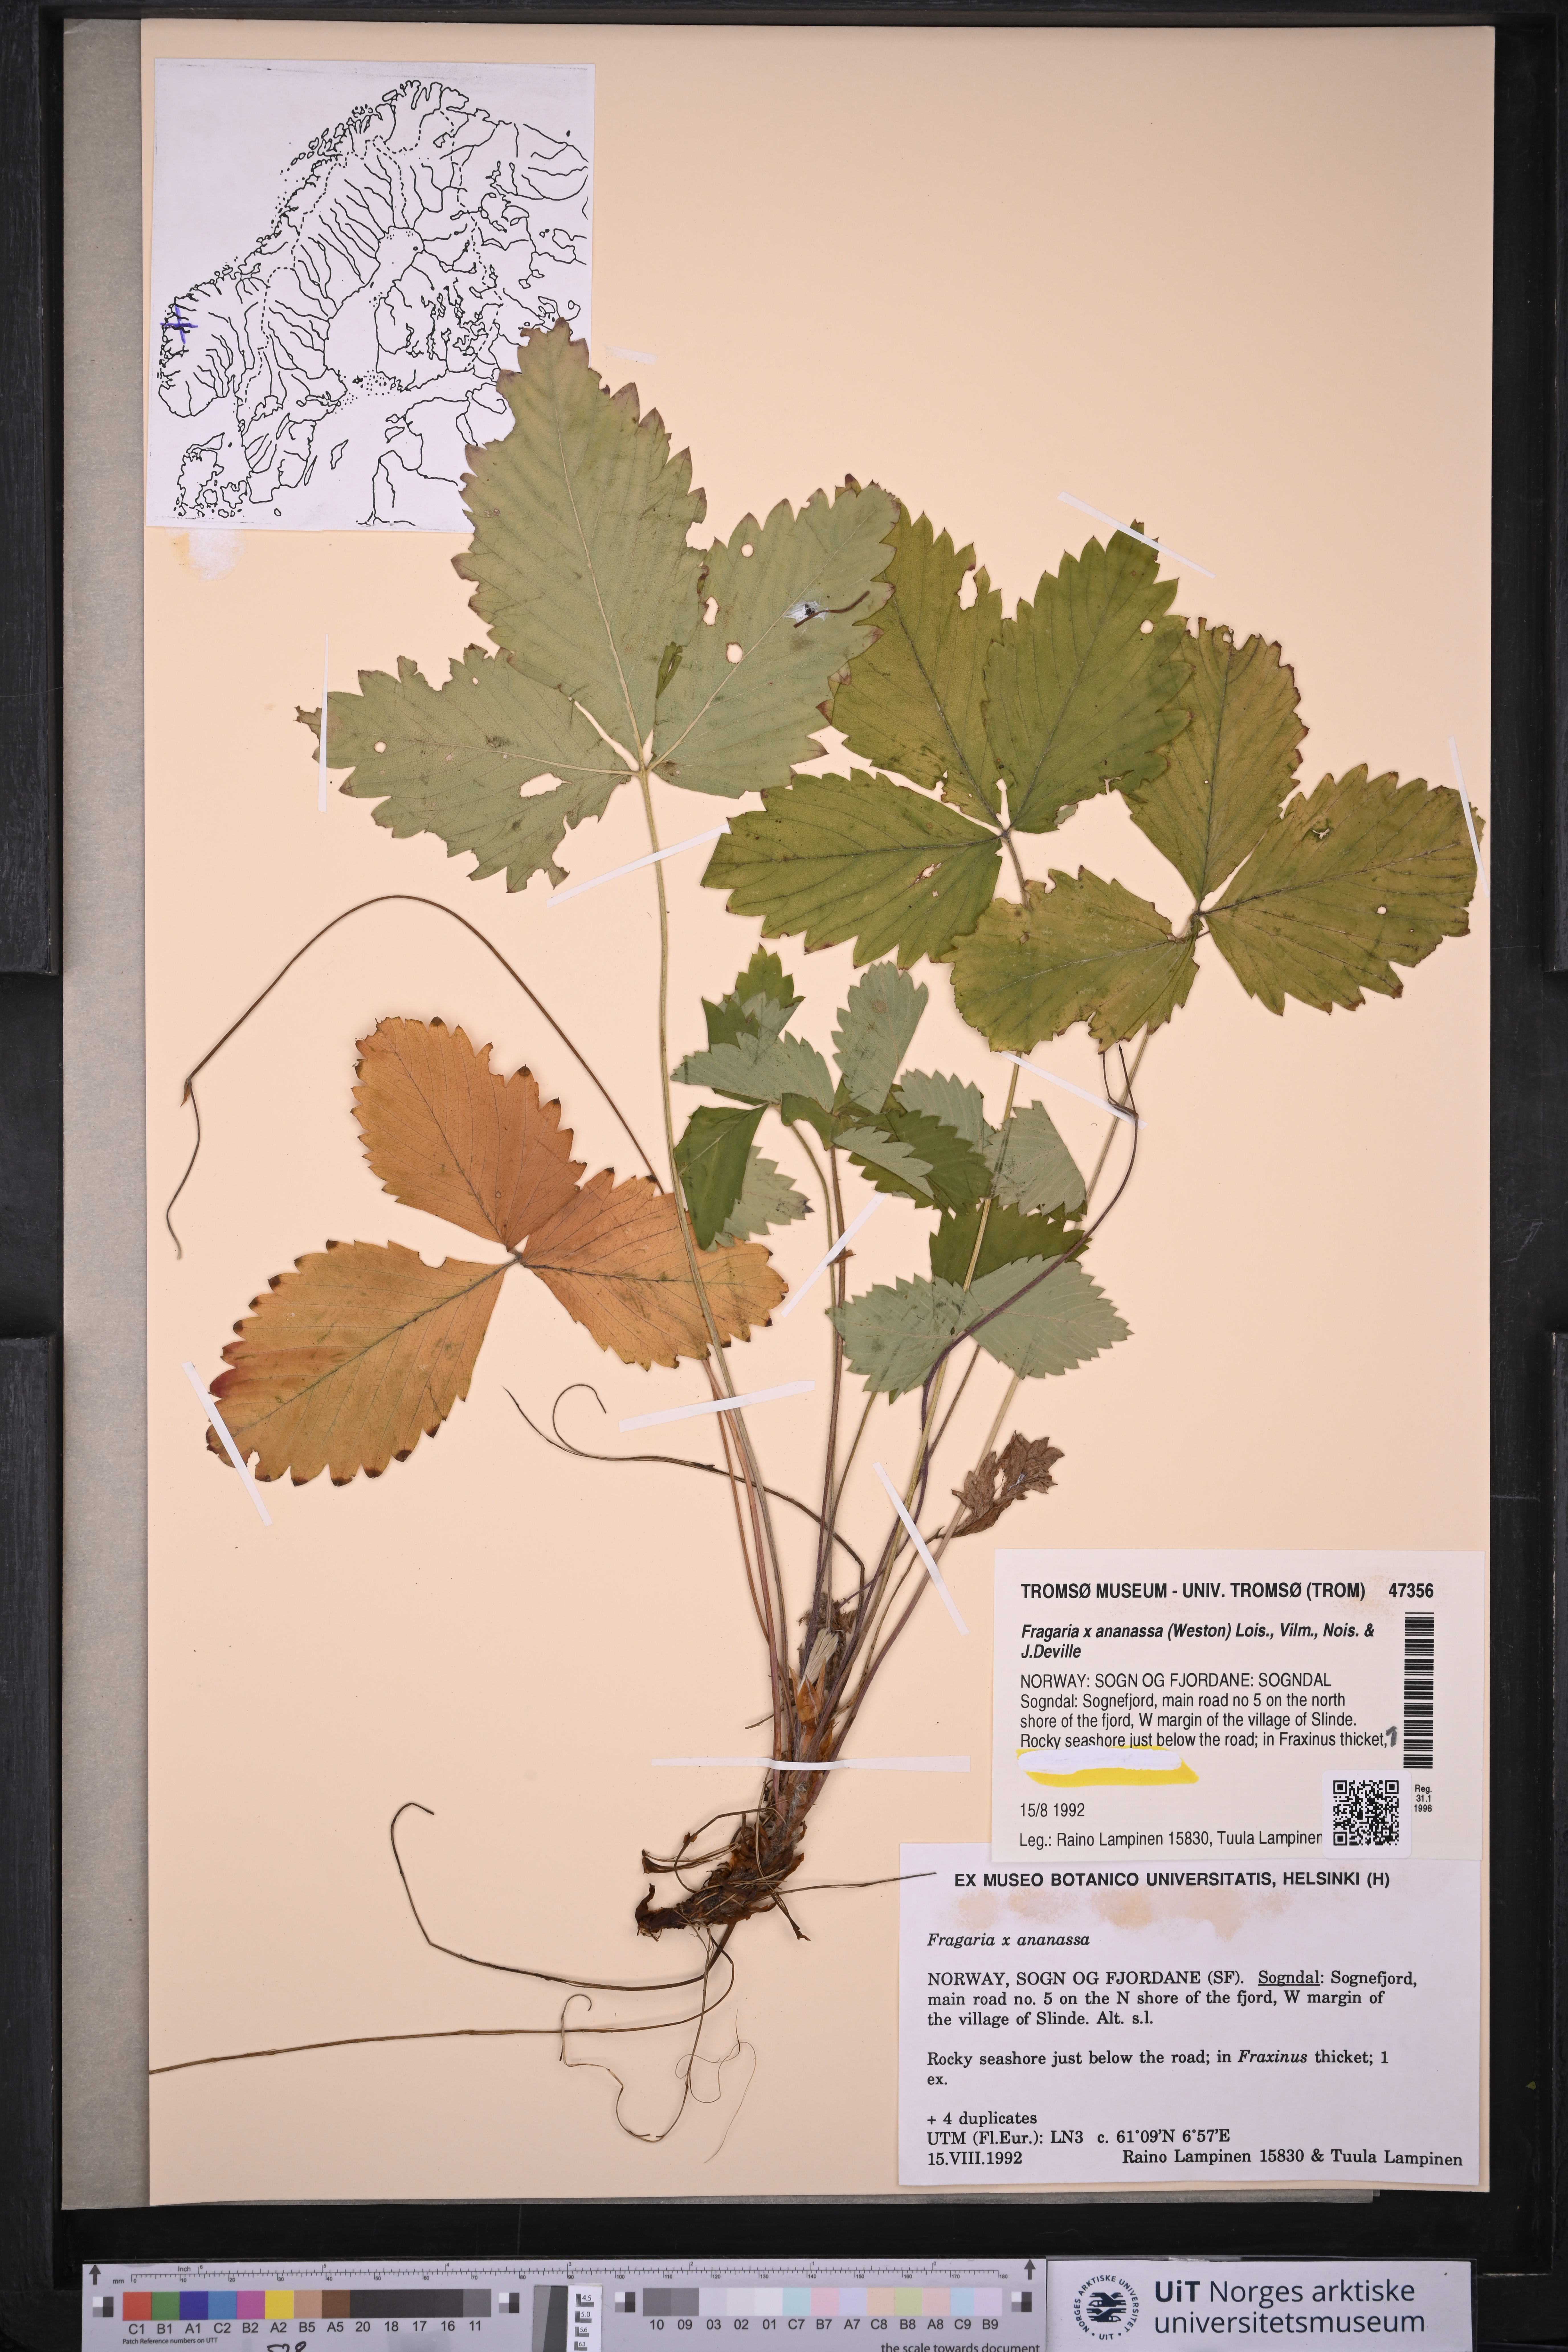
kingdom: Plantae
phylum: Tracheophyta
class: Magnoliopsida
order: Rosales
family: Rosaceae
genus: Fragaria
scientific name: Fragaria ananassa
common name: Garden strawberry
